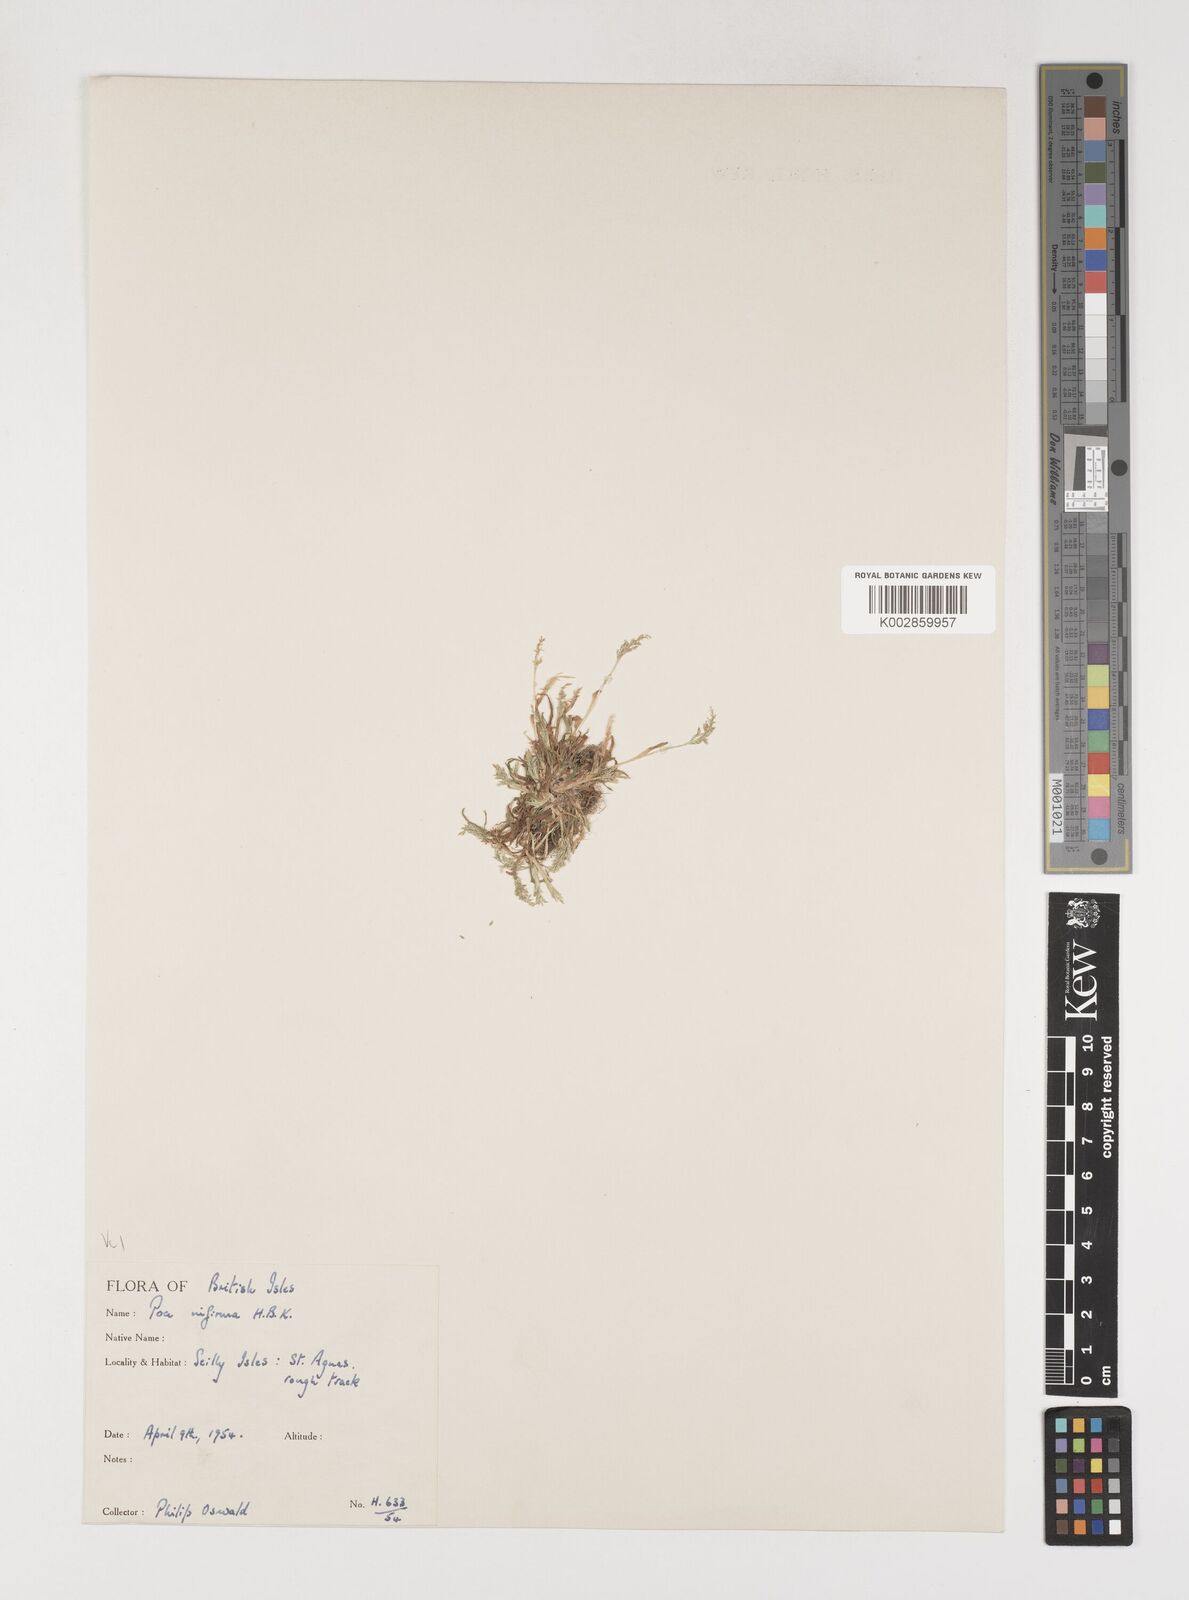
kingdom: Plantae
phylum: Tracheophyta
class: Liliopsida
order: Poales
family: Poaceae
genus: Poa
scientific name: Poa infirma
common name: Weak bluegrass
